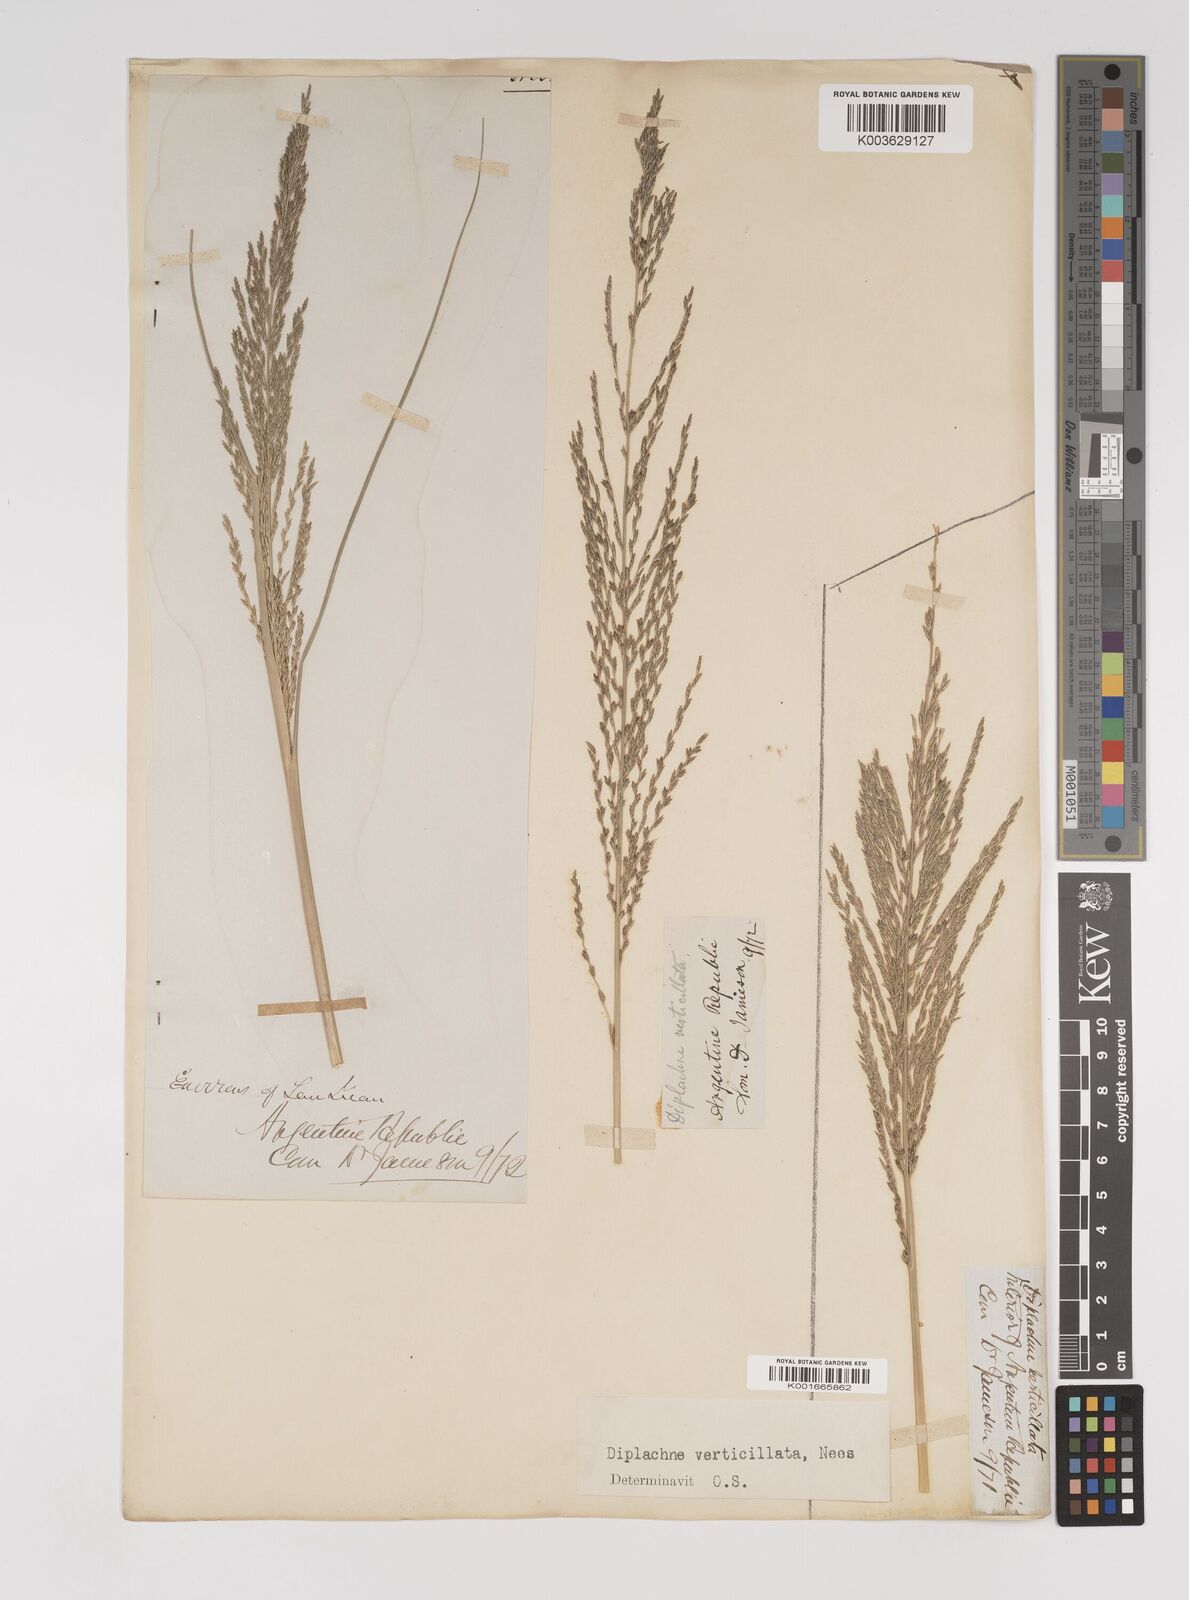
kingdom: Plantae
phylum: Tracheophyta
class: Liliopsida
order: Poales
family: Poaceae
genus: Diplachne
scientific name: Diplachne fusca
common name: Brown beetle grass
